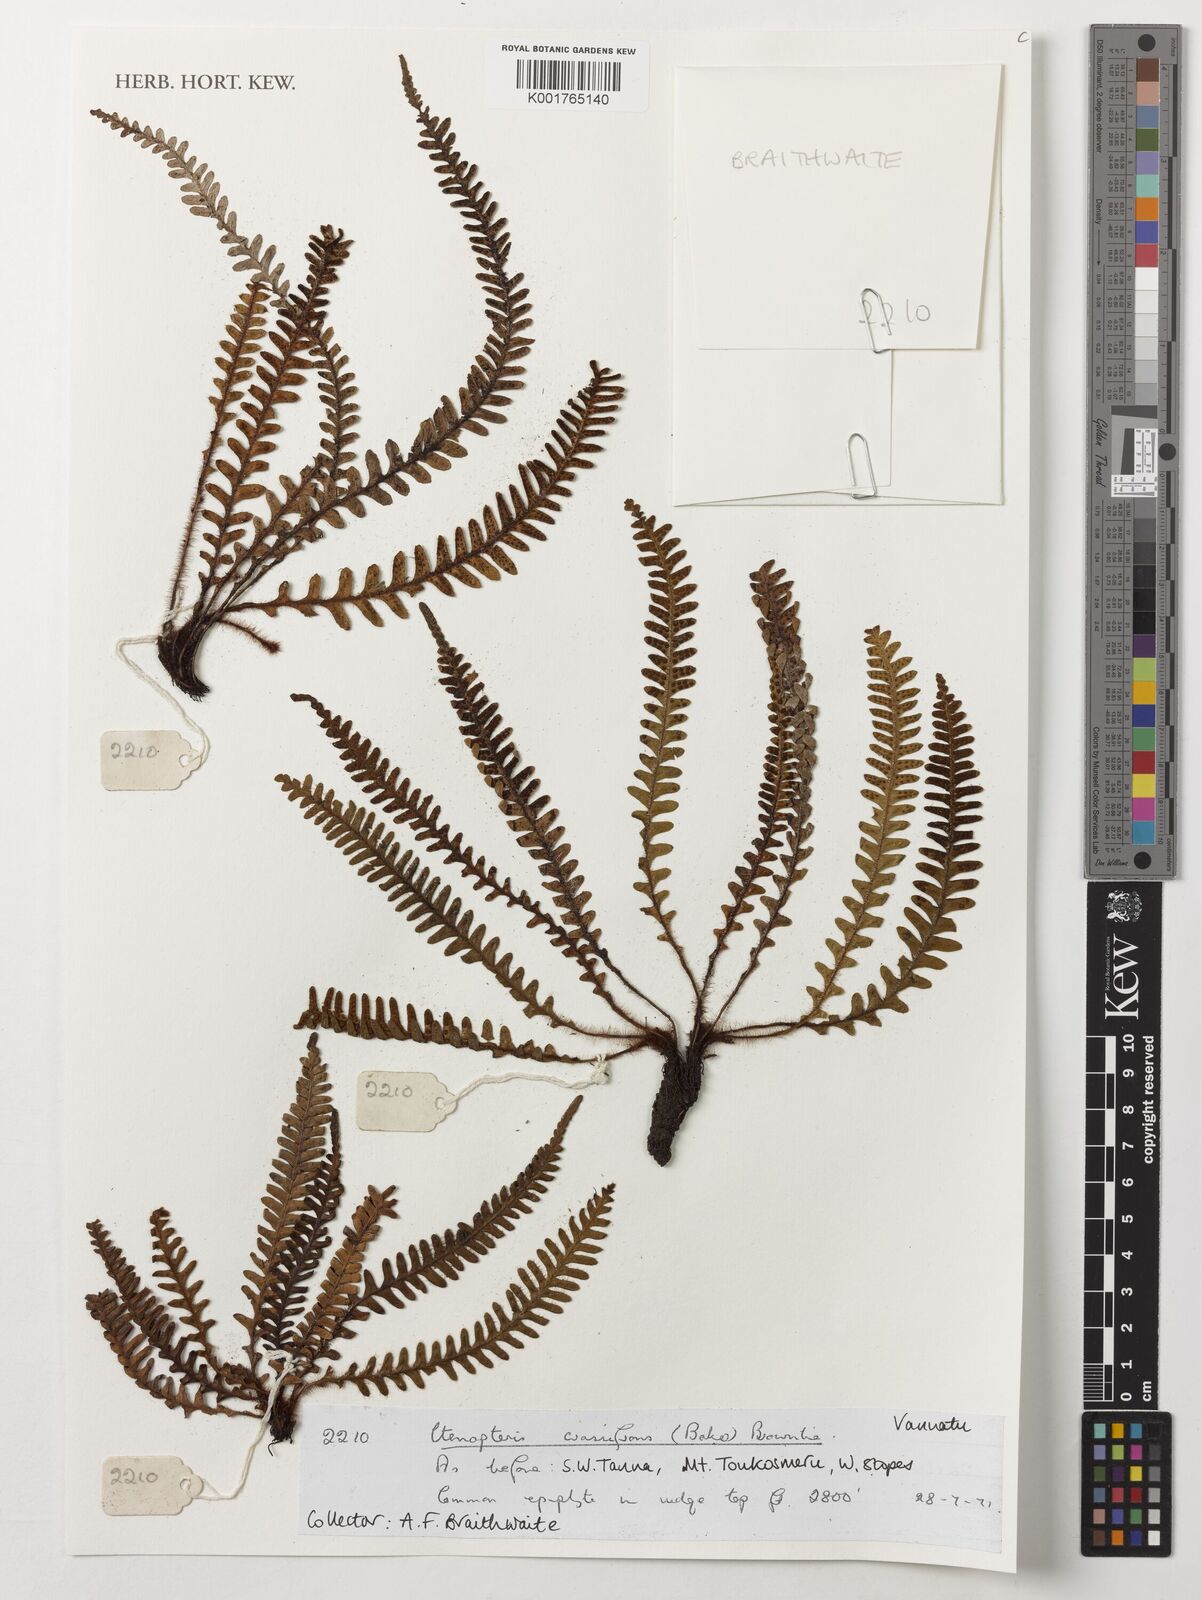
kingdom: Plantae
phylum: Tracheophyta
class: Polypodiopsida
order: Polypodiales
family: Polypodiaceae
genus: Dasygrammitis
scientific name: Dasygrammitis crassifrons
